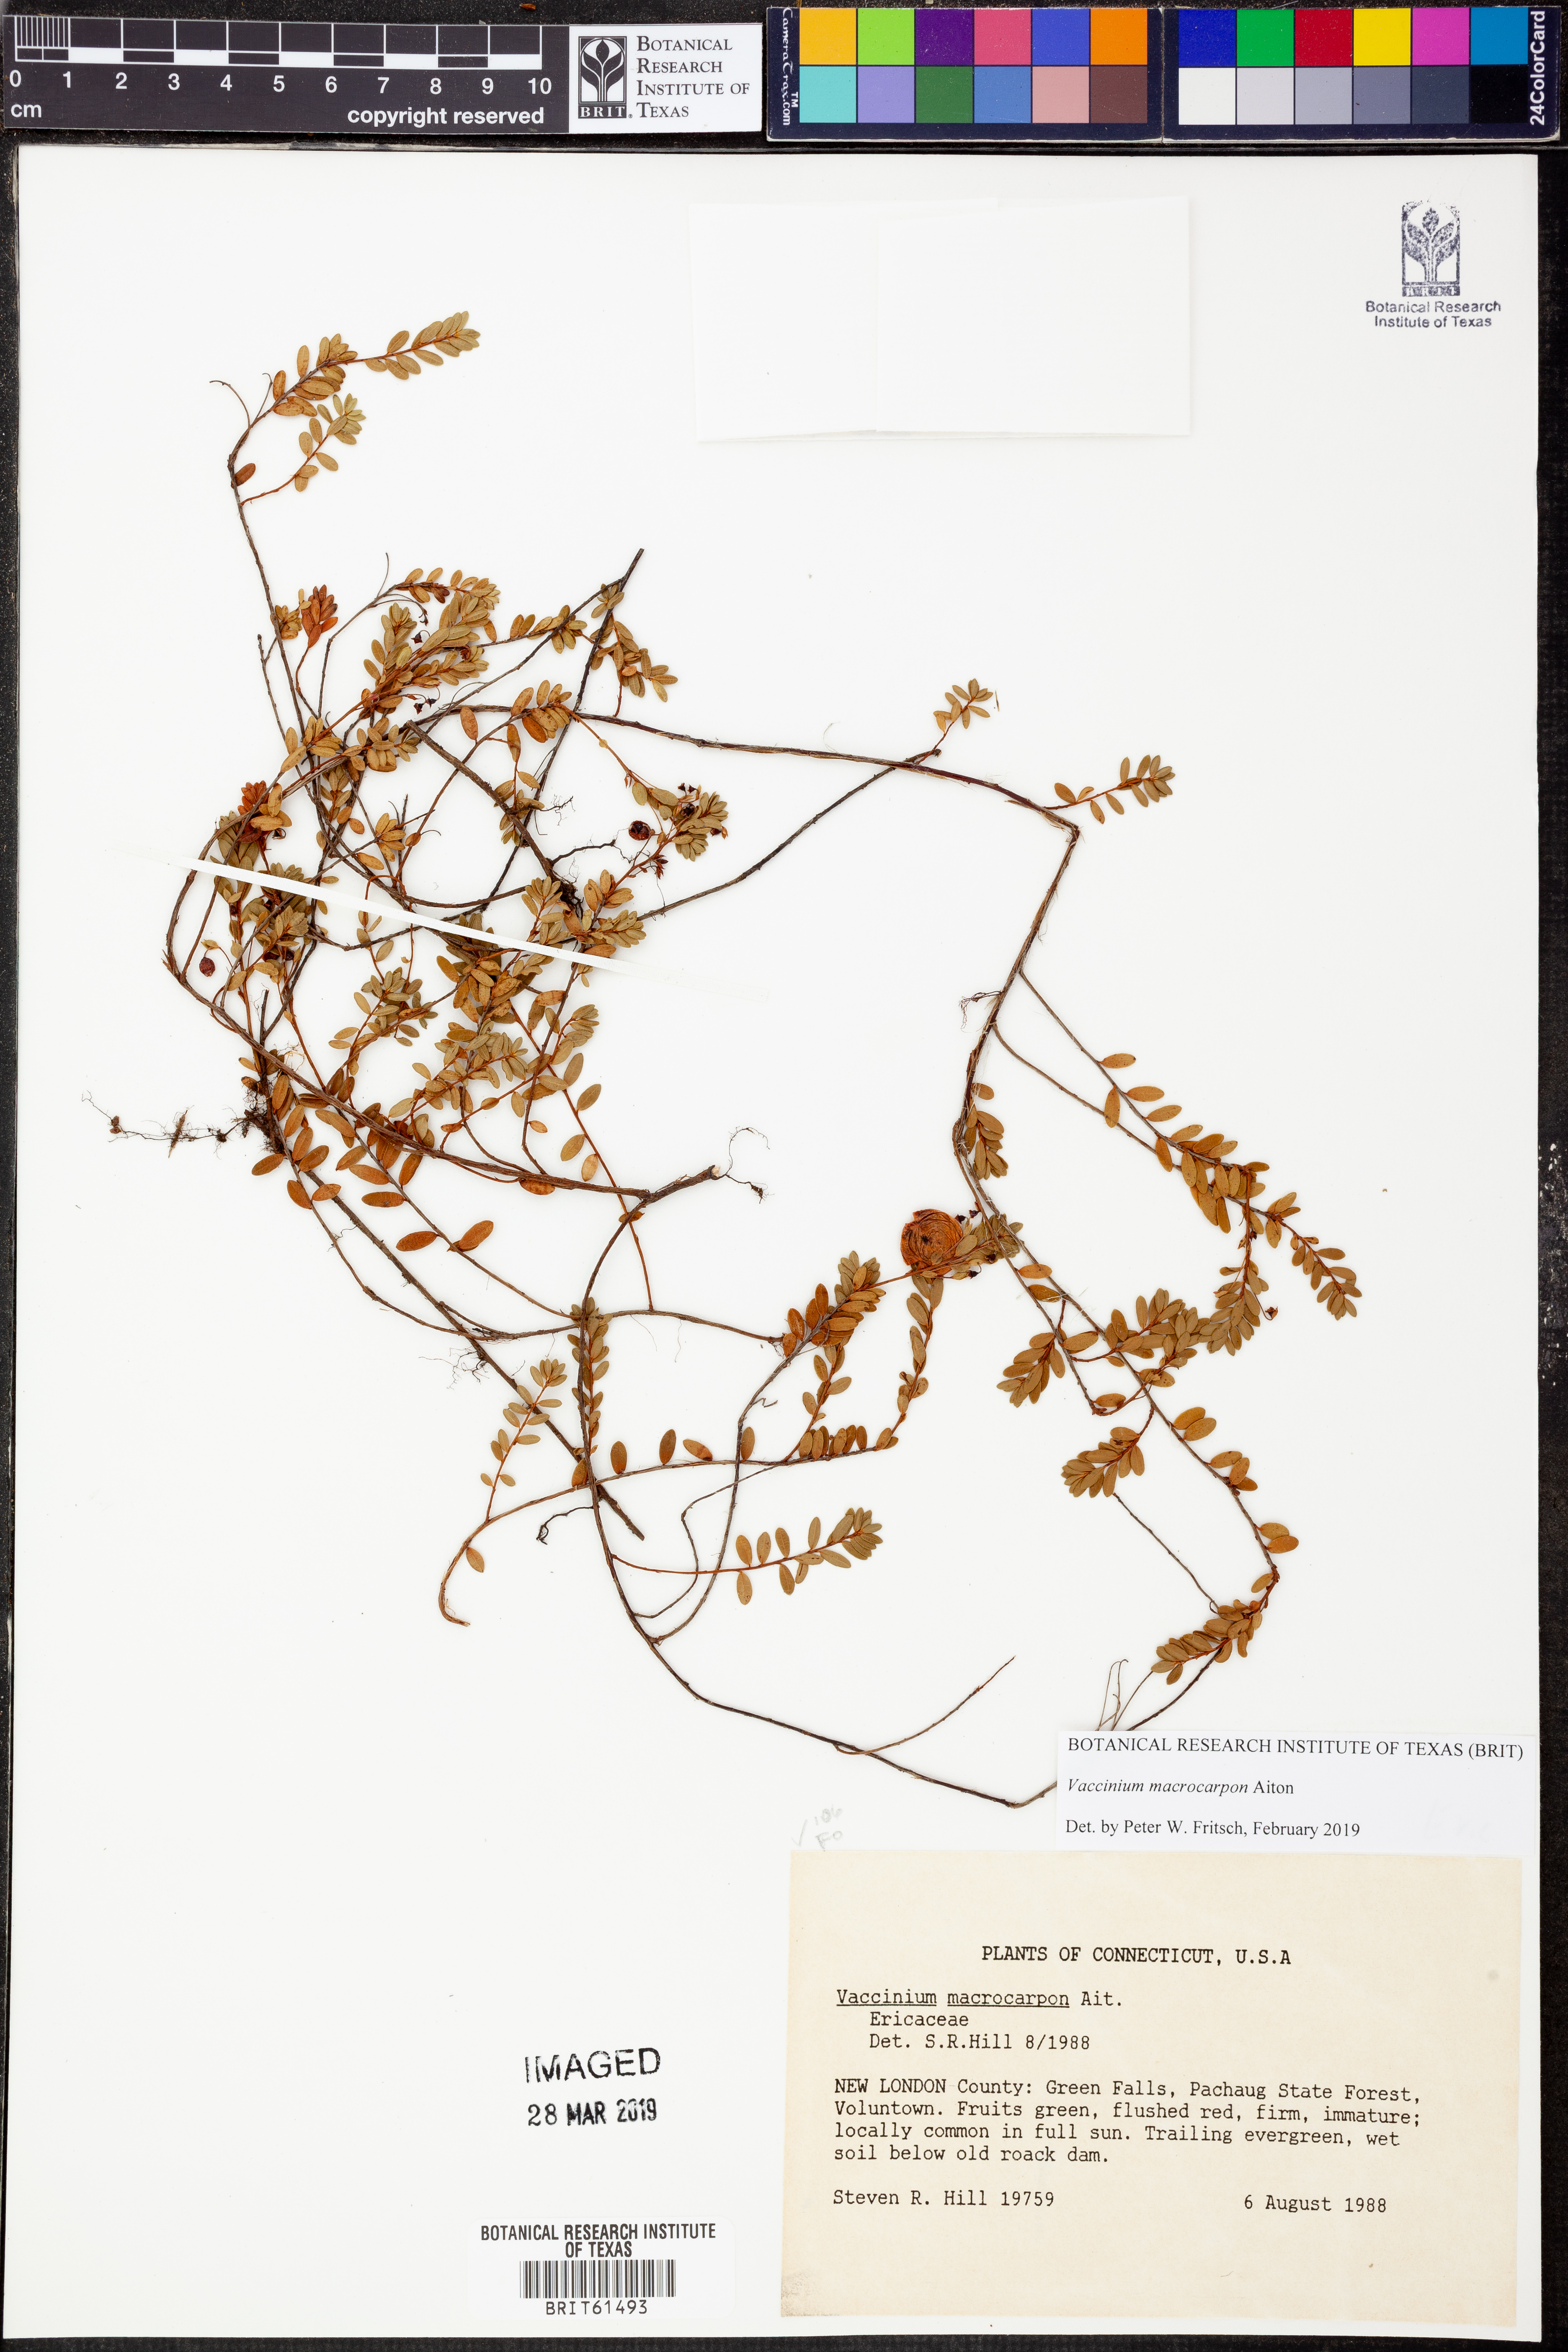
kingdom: Plantae
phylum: Tracheophyta
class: Magnoliopsida
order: Ericales
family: Ericaceae
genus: Vaccinium
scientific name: Vaccinium macrocarpon
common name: American cranberry
